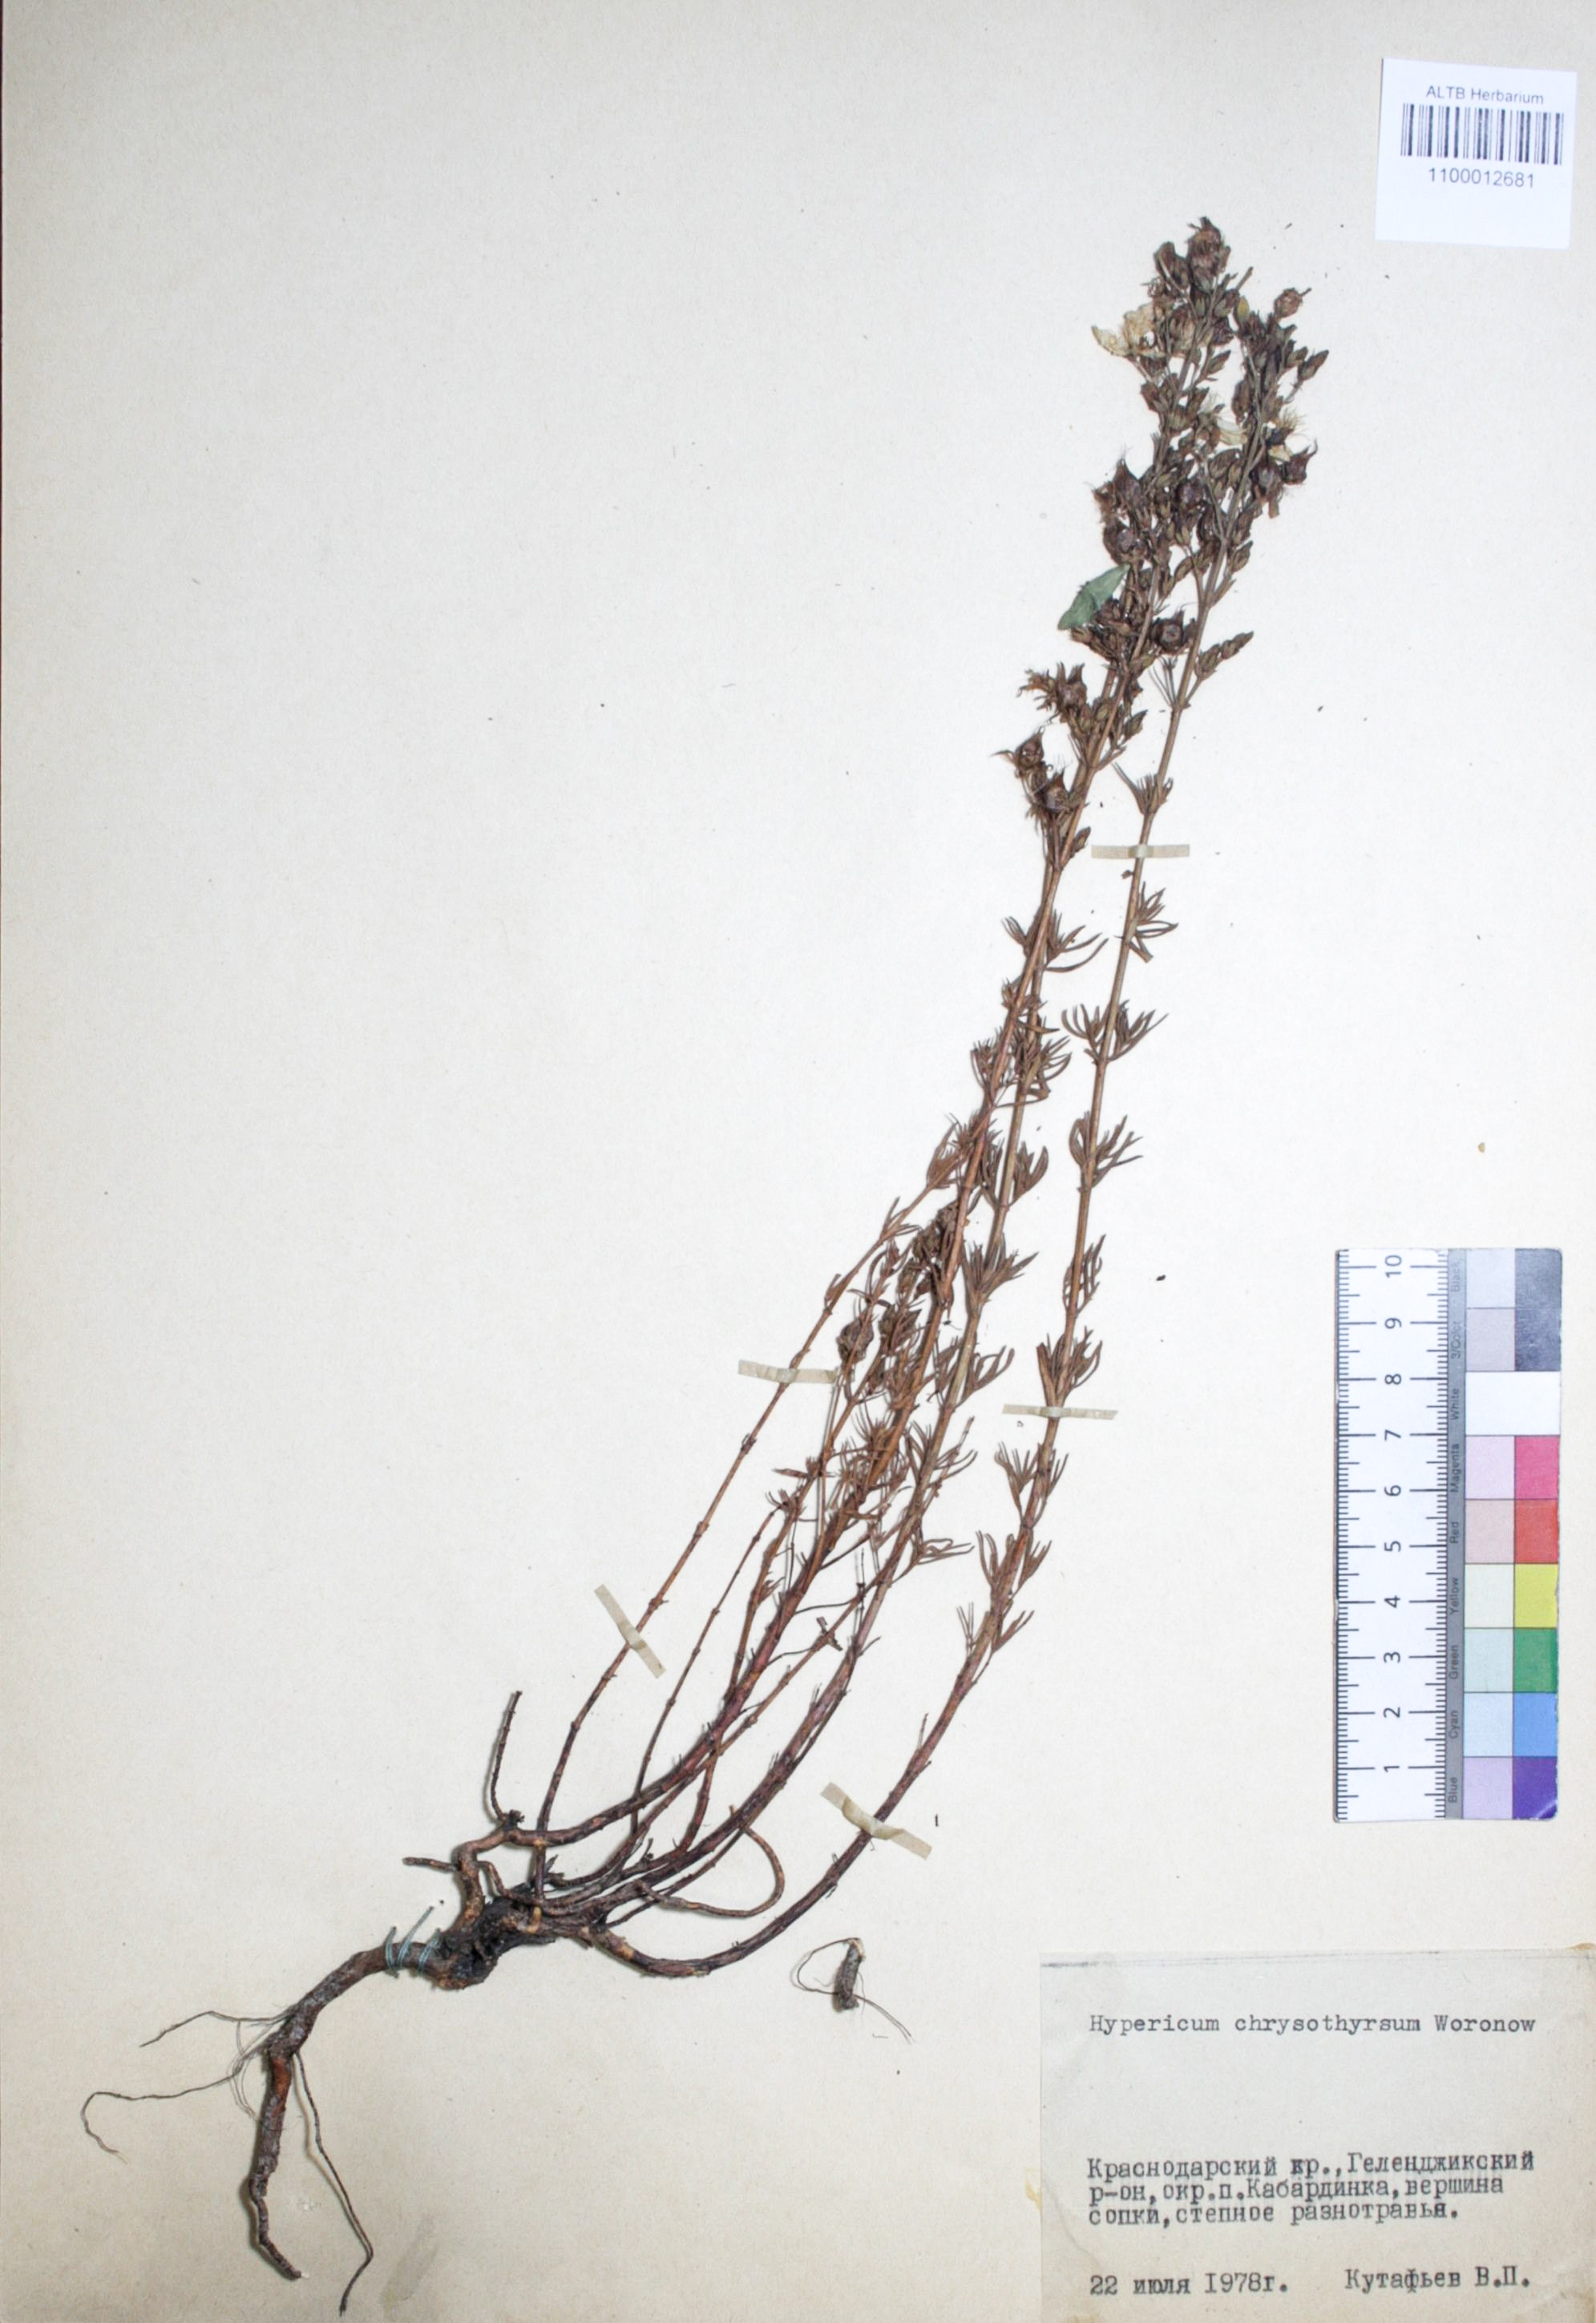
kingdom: Plantae
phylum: Tracheophyta
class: Magnoliopsida
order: Malpighiales
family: Hypericaceae
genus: Hypericum
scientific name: Hypericum chrysothyrsum
